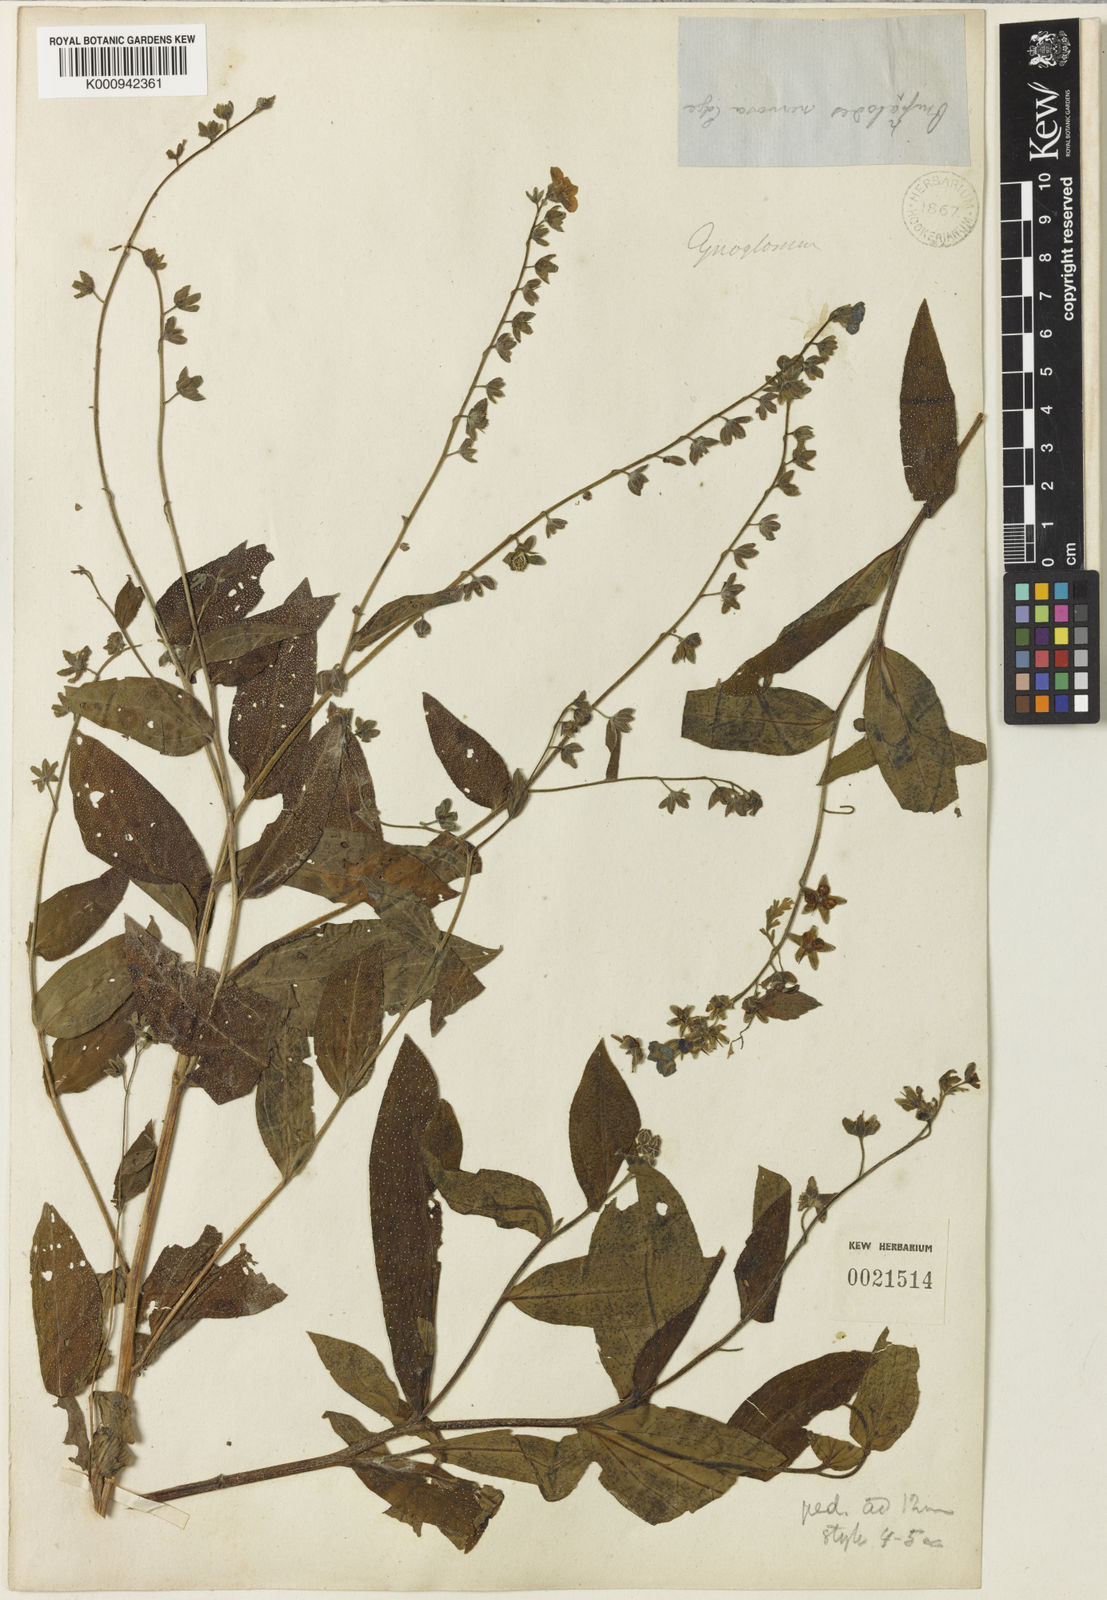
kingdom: Plantae
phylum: Tracheophyta
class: Magnoliopsida
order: Boraginales
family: Boraginaceae
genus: Cynoglossum
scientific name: Cynoglossum
